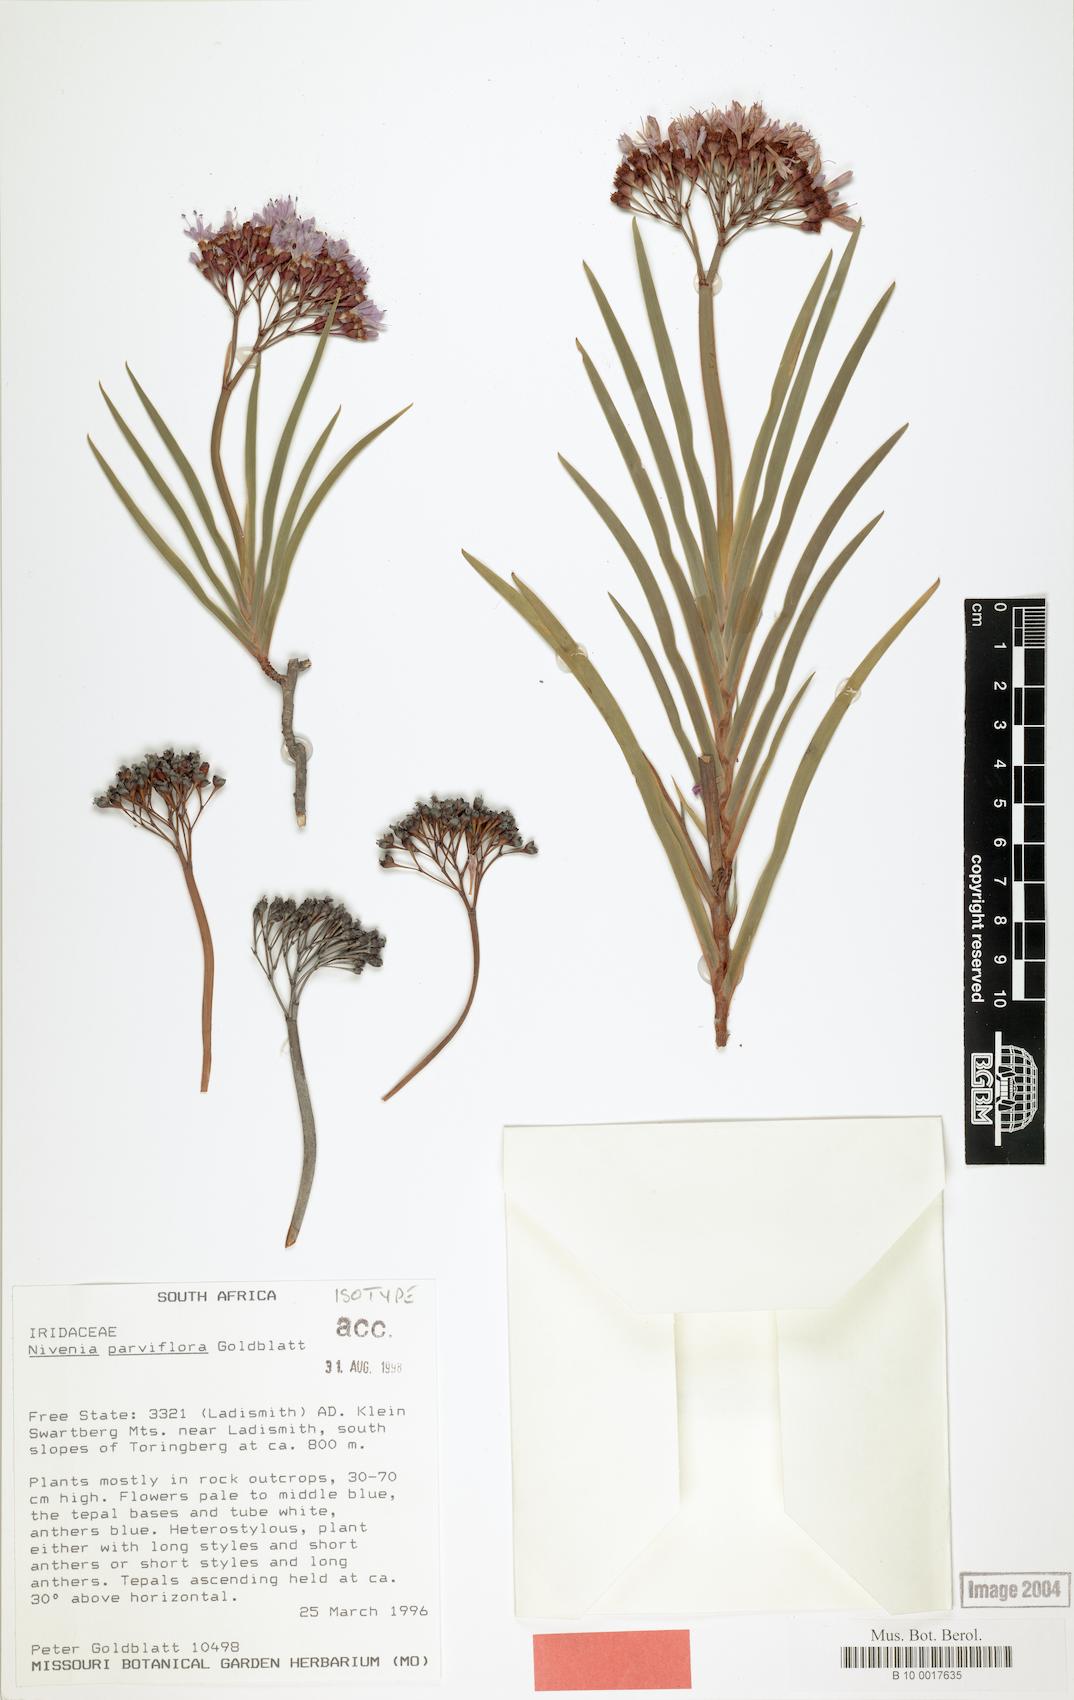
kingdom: Plantae
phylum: Tracheophyta
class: Liliopsida
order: Asparagales
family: Iridaceae
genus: Nivenia
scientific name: Nivenia parviflora
